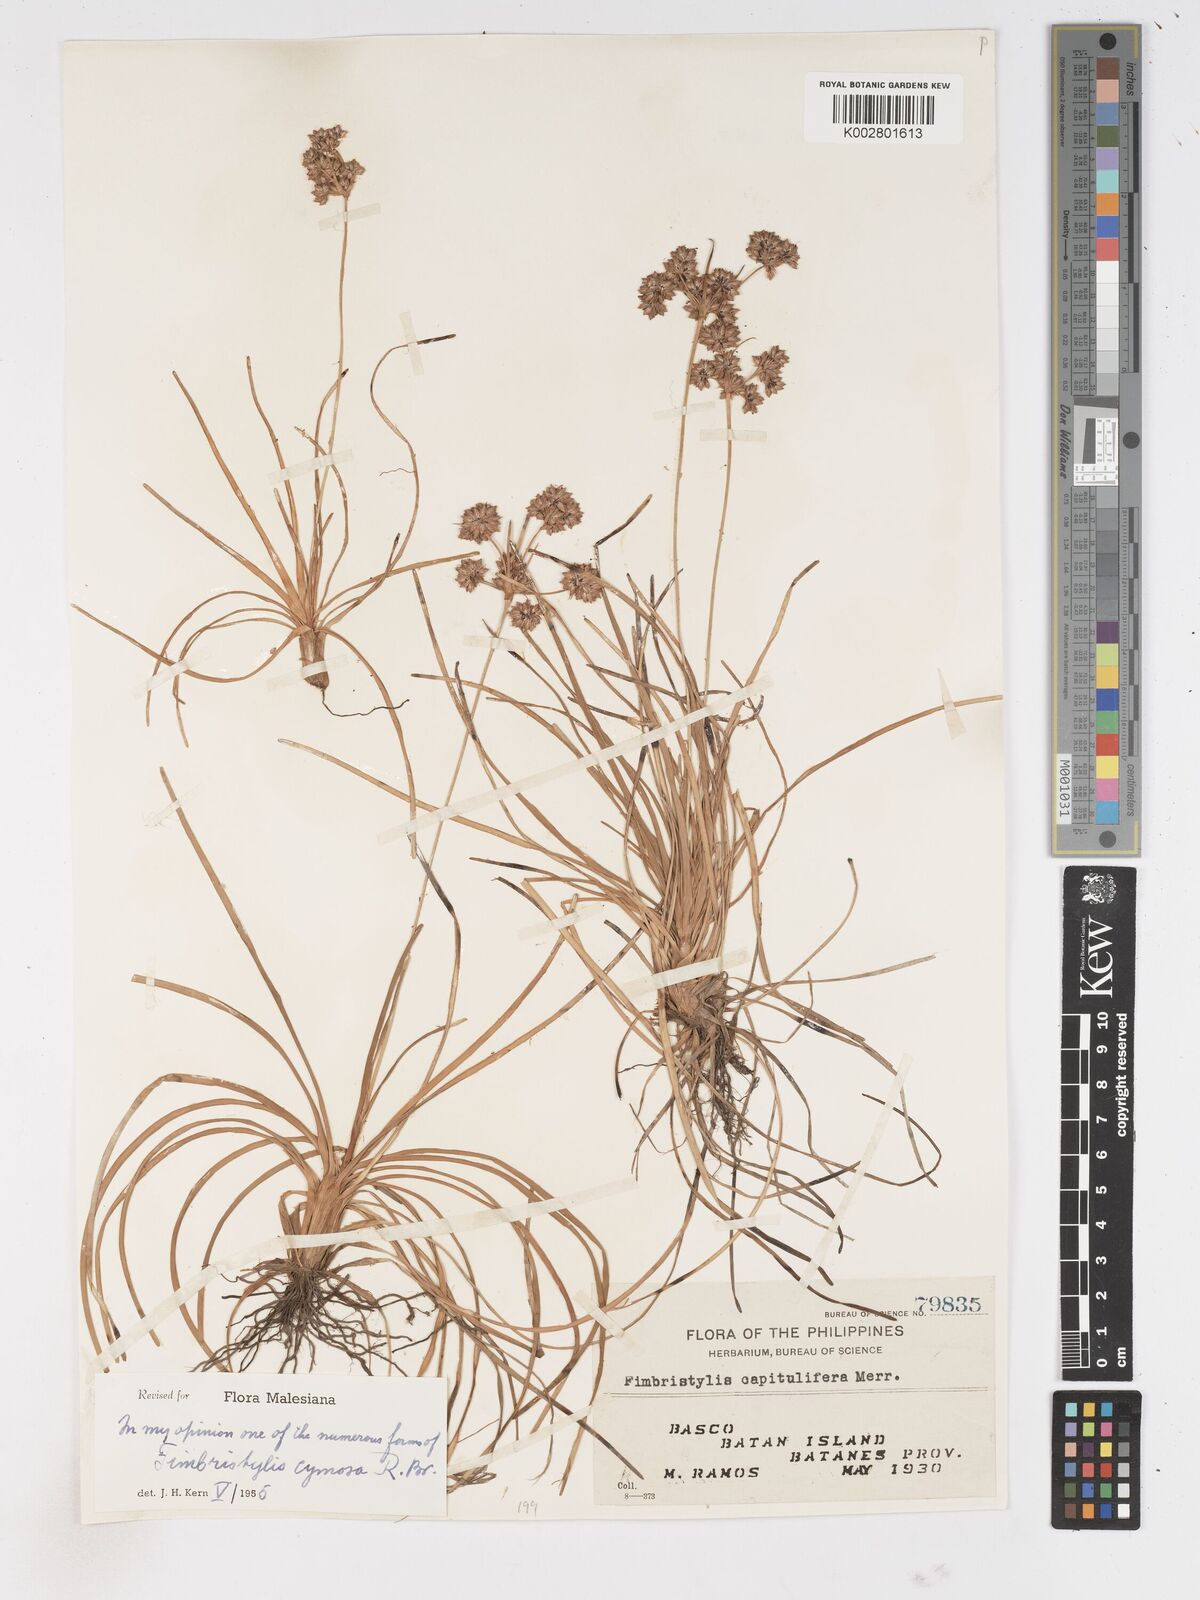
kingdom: Plantae
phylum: Tracheophyta
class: Liliopsida
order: Poales
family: Cyperaceae
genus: Fimbristylis
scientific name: Fimbristylis cymosa
